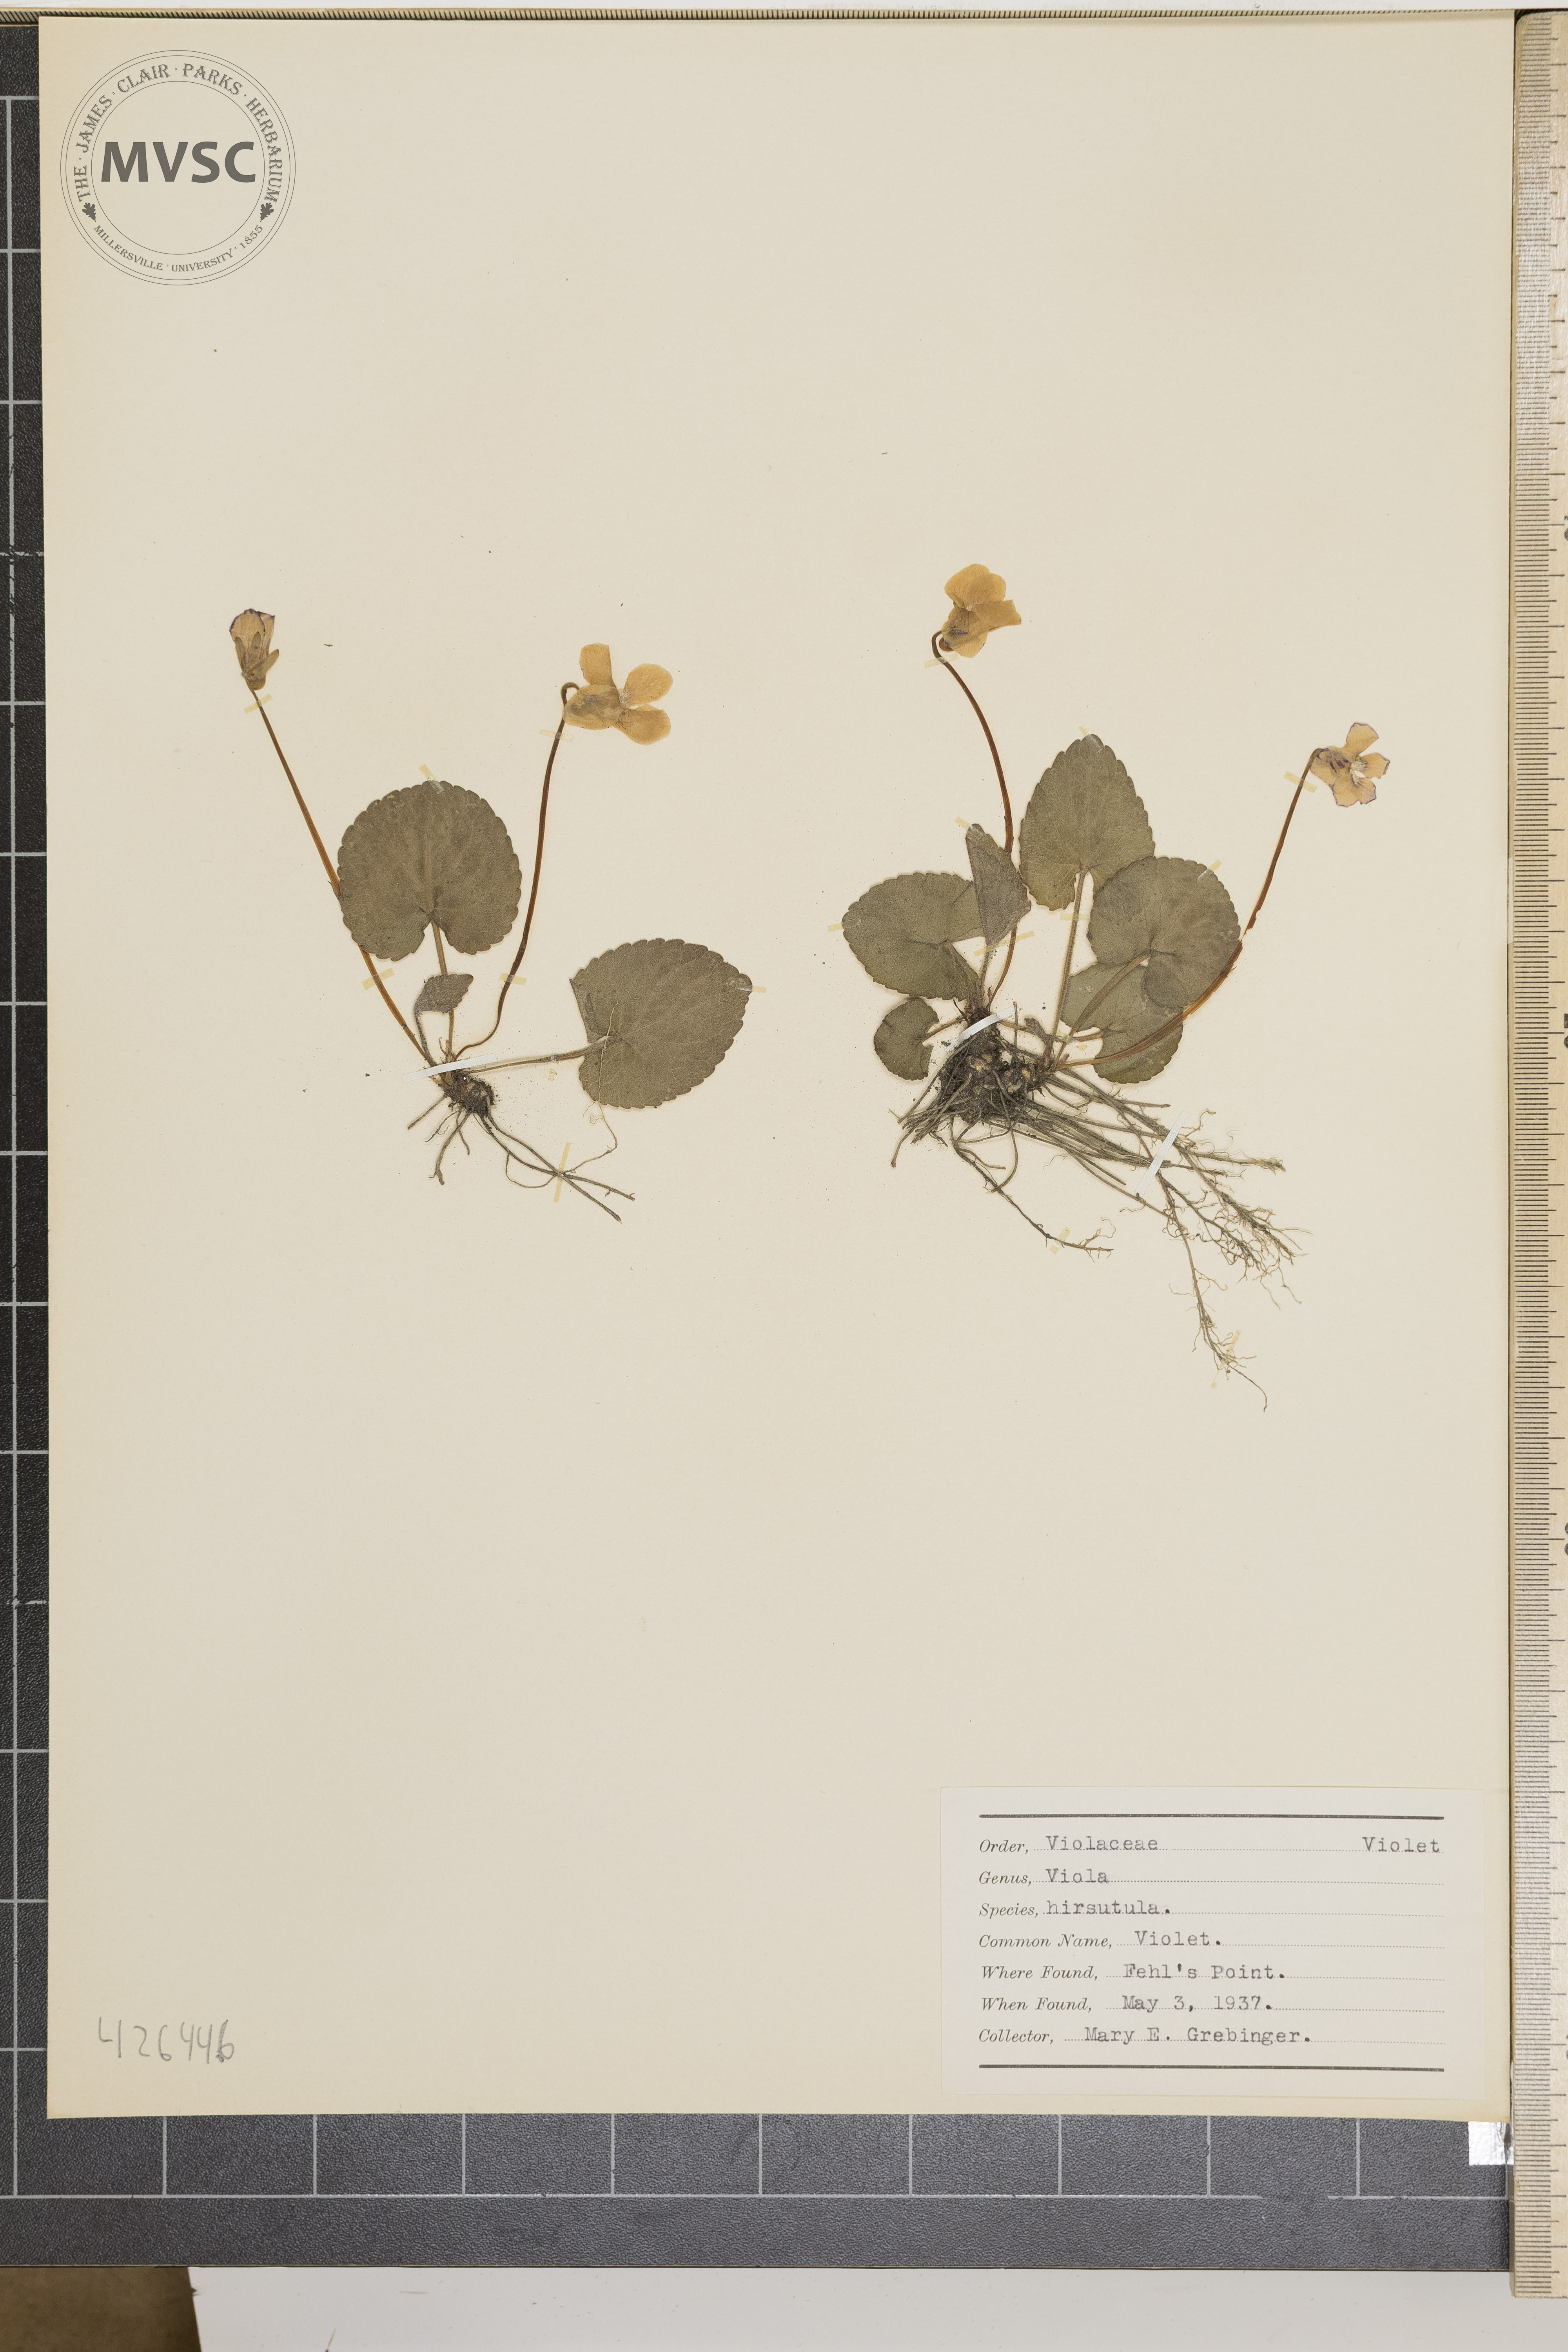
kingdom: Plantae
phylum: Tracheophyta
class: Magnoliopsida
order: Malpighiales
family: Violaceae
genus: Viola
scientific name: Viola hirsutula
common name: Violet
